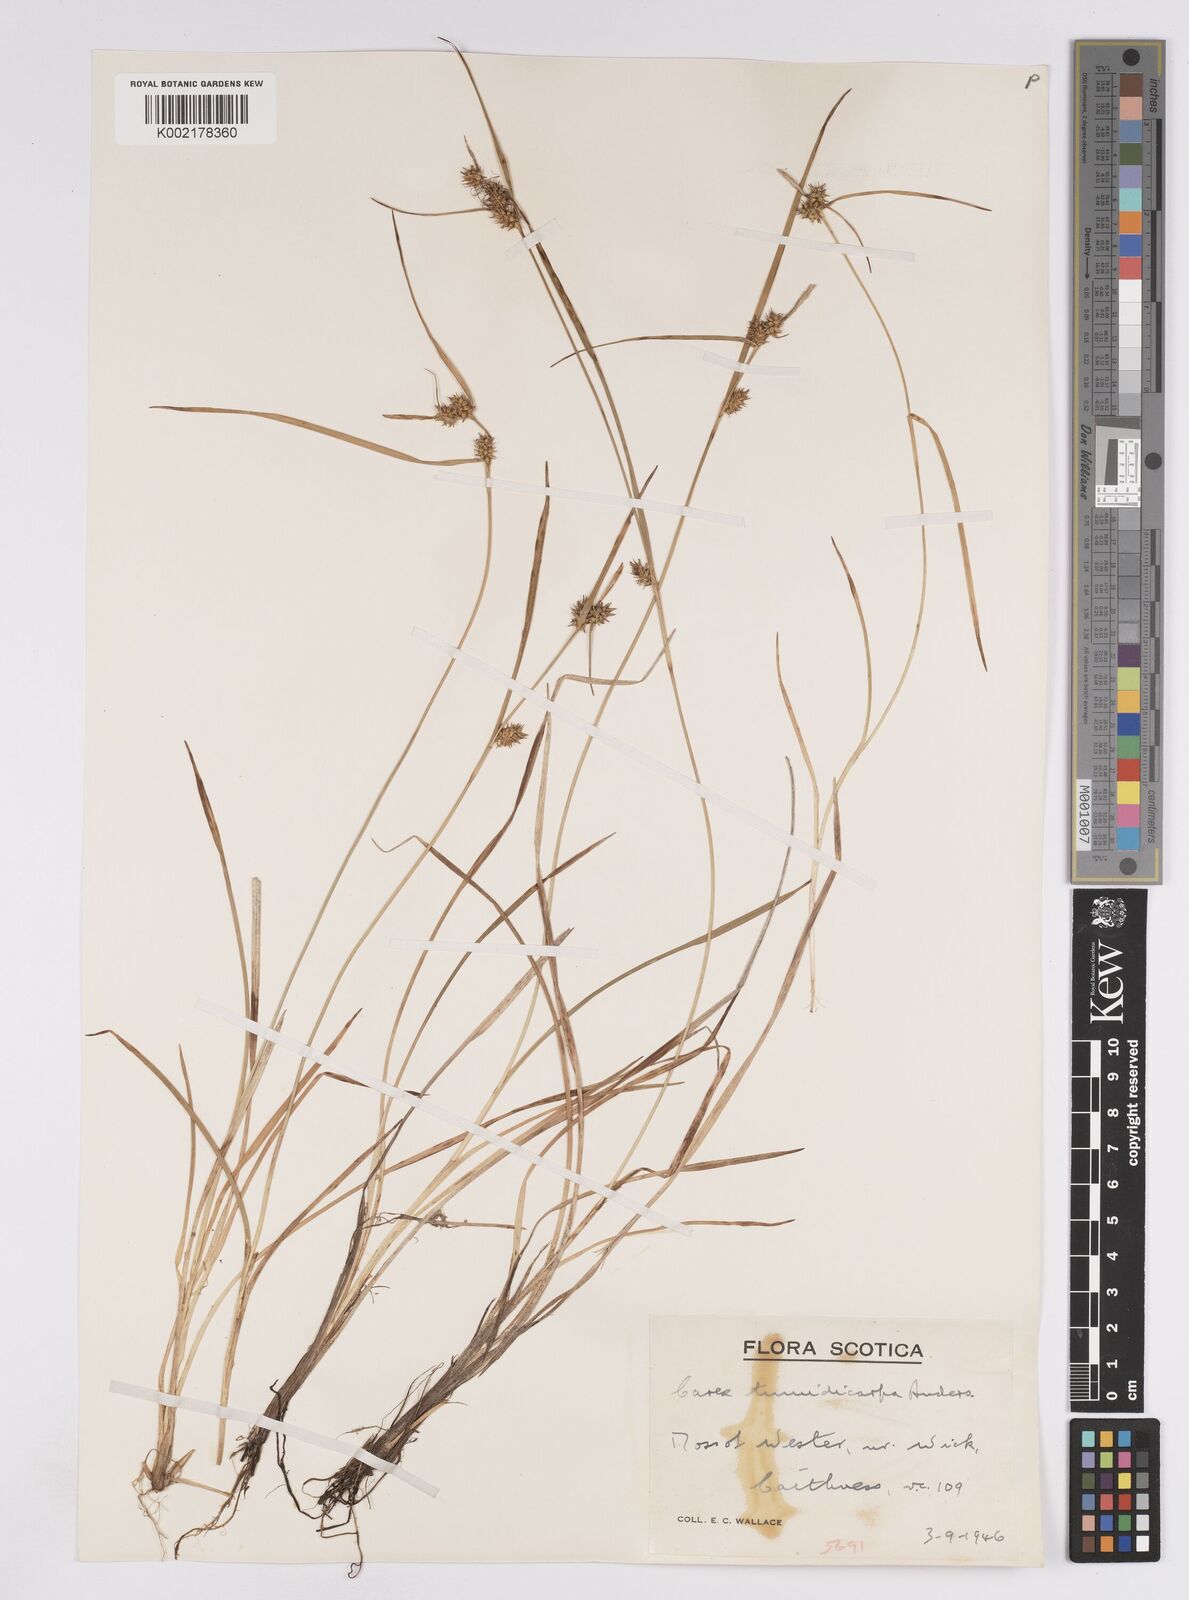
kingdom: Plantae
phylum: Tracheophyta
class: Liliopsida
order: Poales
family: Cyperaceae
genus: Carex
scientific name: Carex demissa
